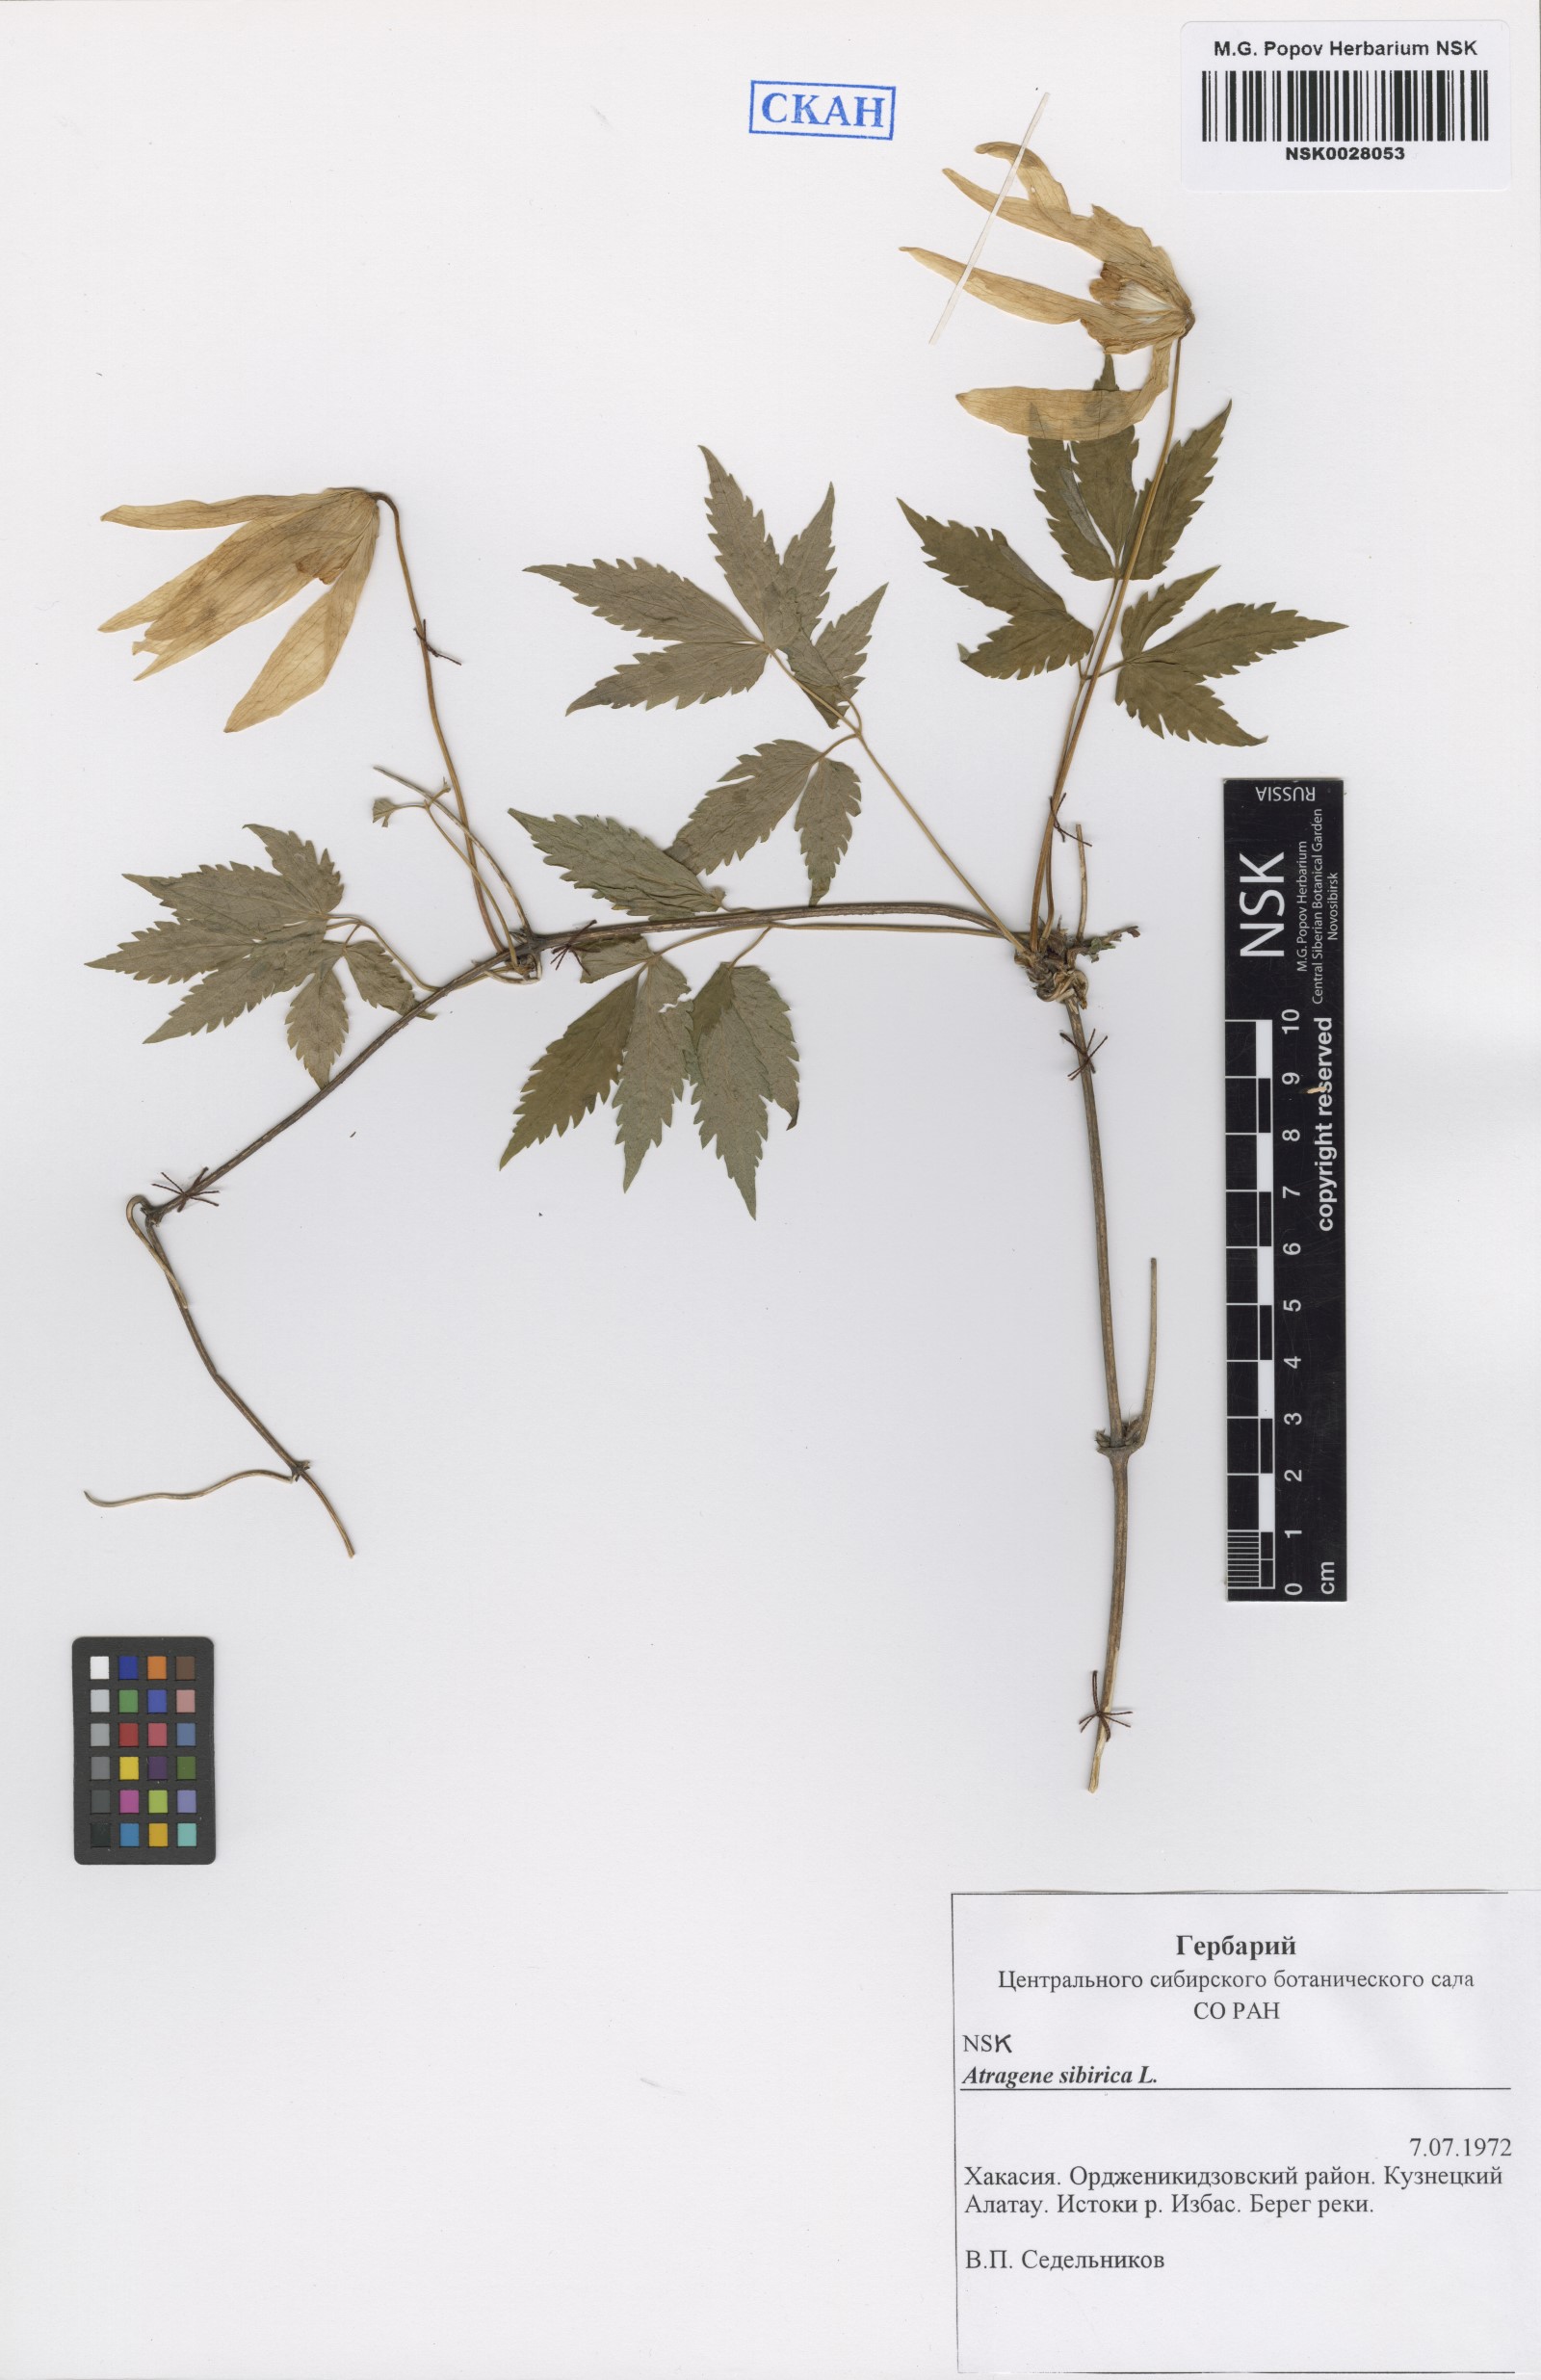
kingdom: Plantae
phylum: Tracheophyta
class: Magnoliopsida
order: Ranunculales
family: Ranunculaceae
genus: Clematis
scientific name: Clematis sibirica
